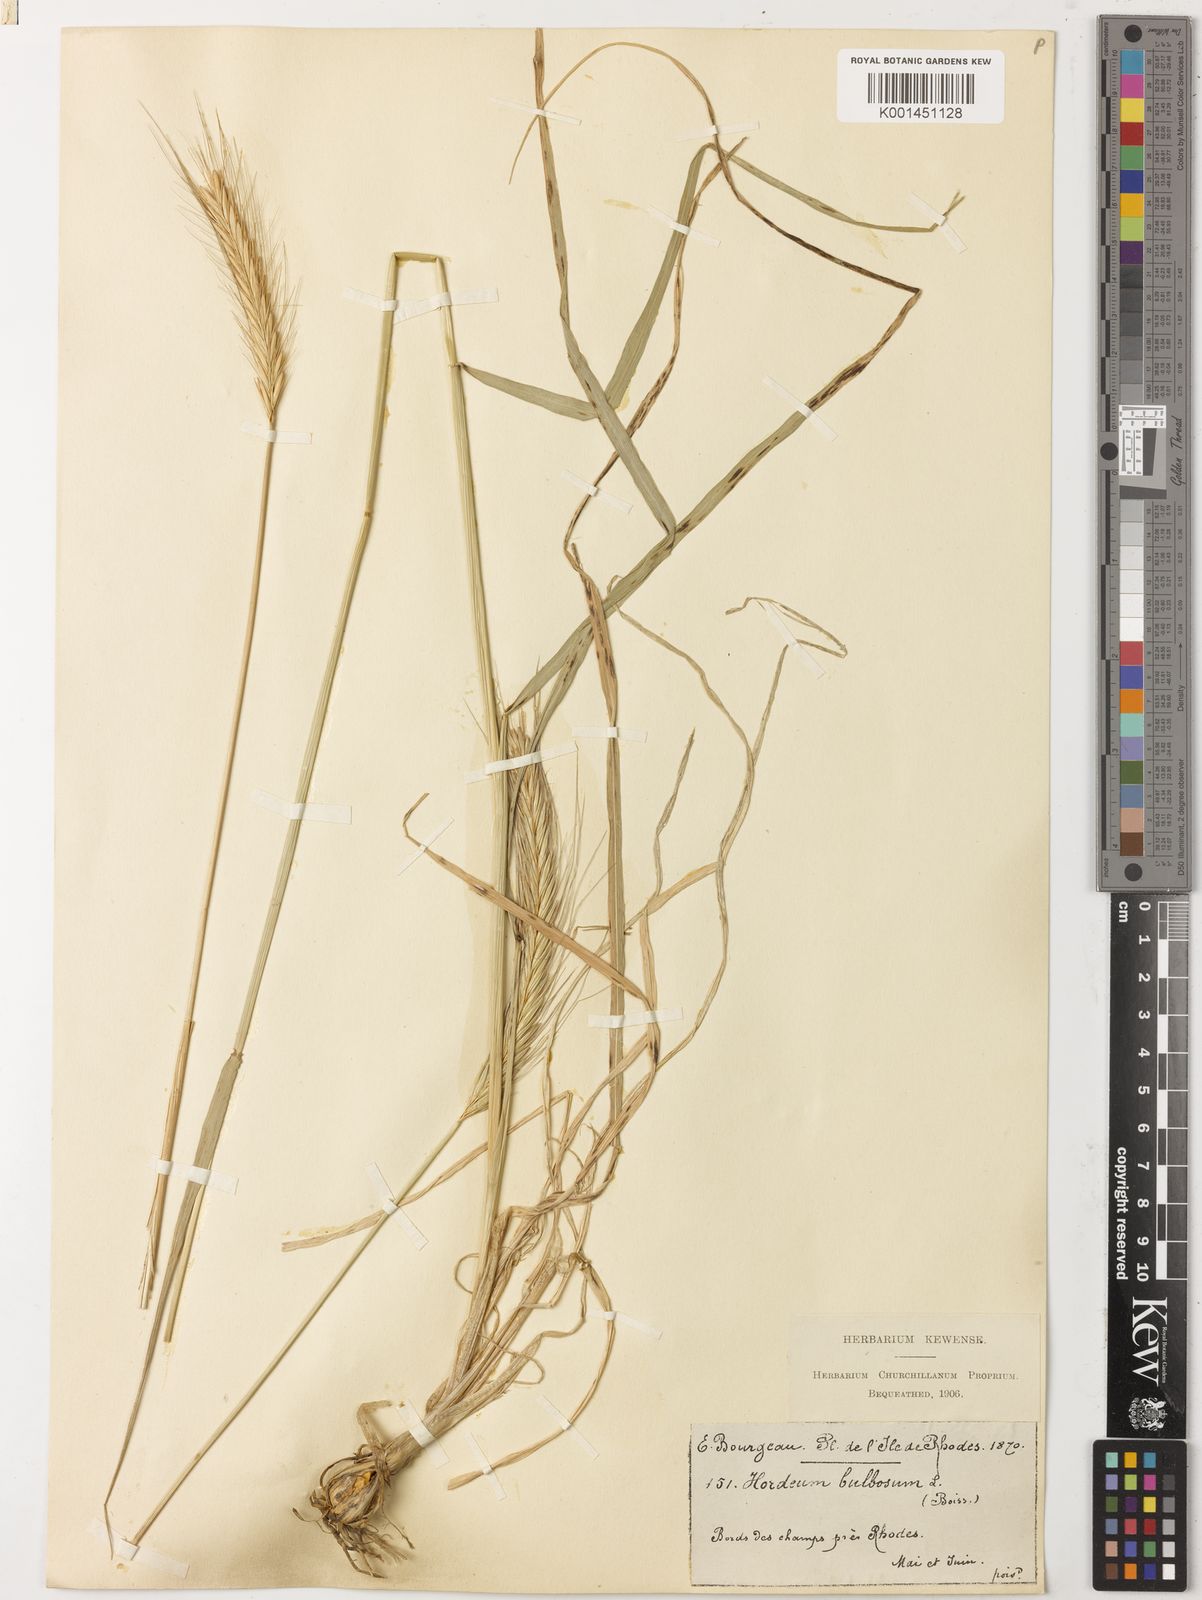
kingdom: Plantae
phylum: Tracheophyta
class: Liliopsida
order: Poales
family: Poaceae
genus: Hordeum
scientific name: Hordeum bulbosum
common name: Bulbous barley
